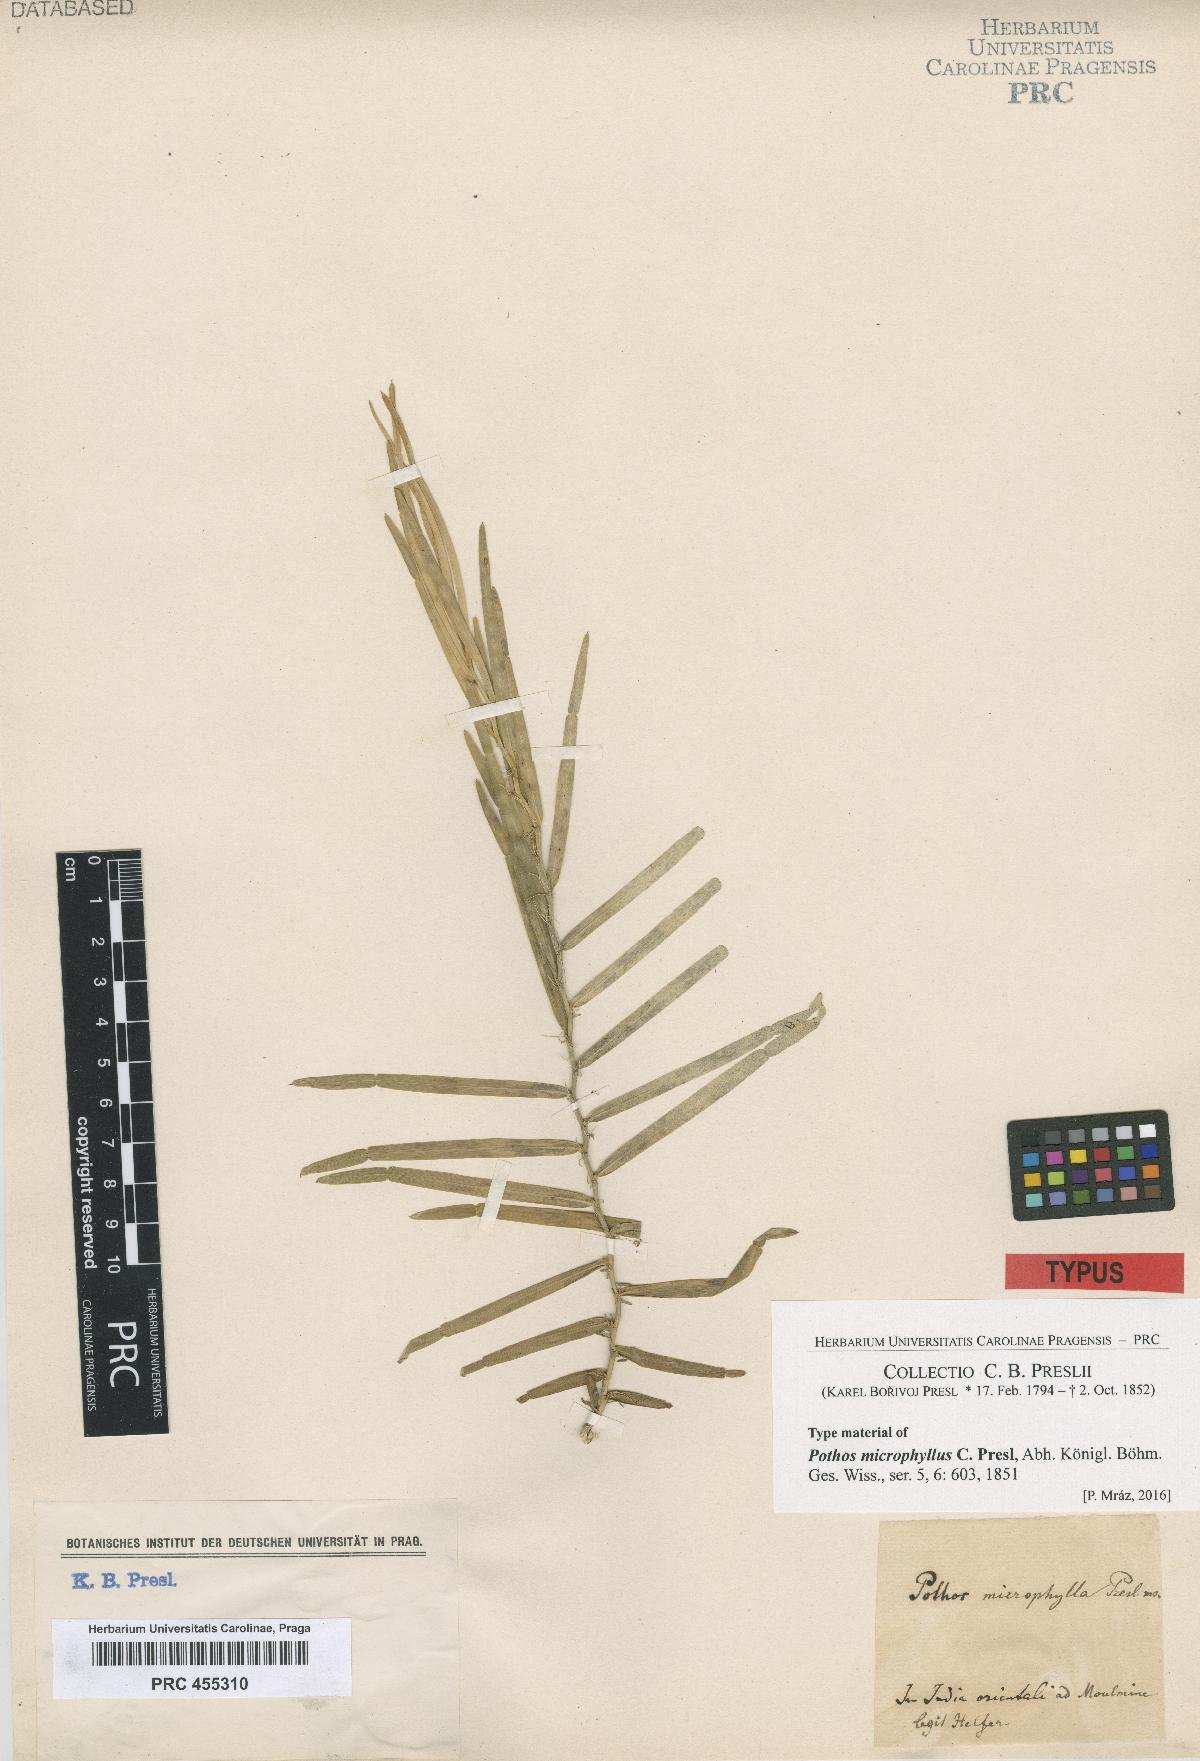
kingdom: Plantae
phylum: Tracheophyta
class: Liliopsida
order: Alismatales
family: Araceae
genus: Pothos
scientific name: Pothos scandens
